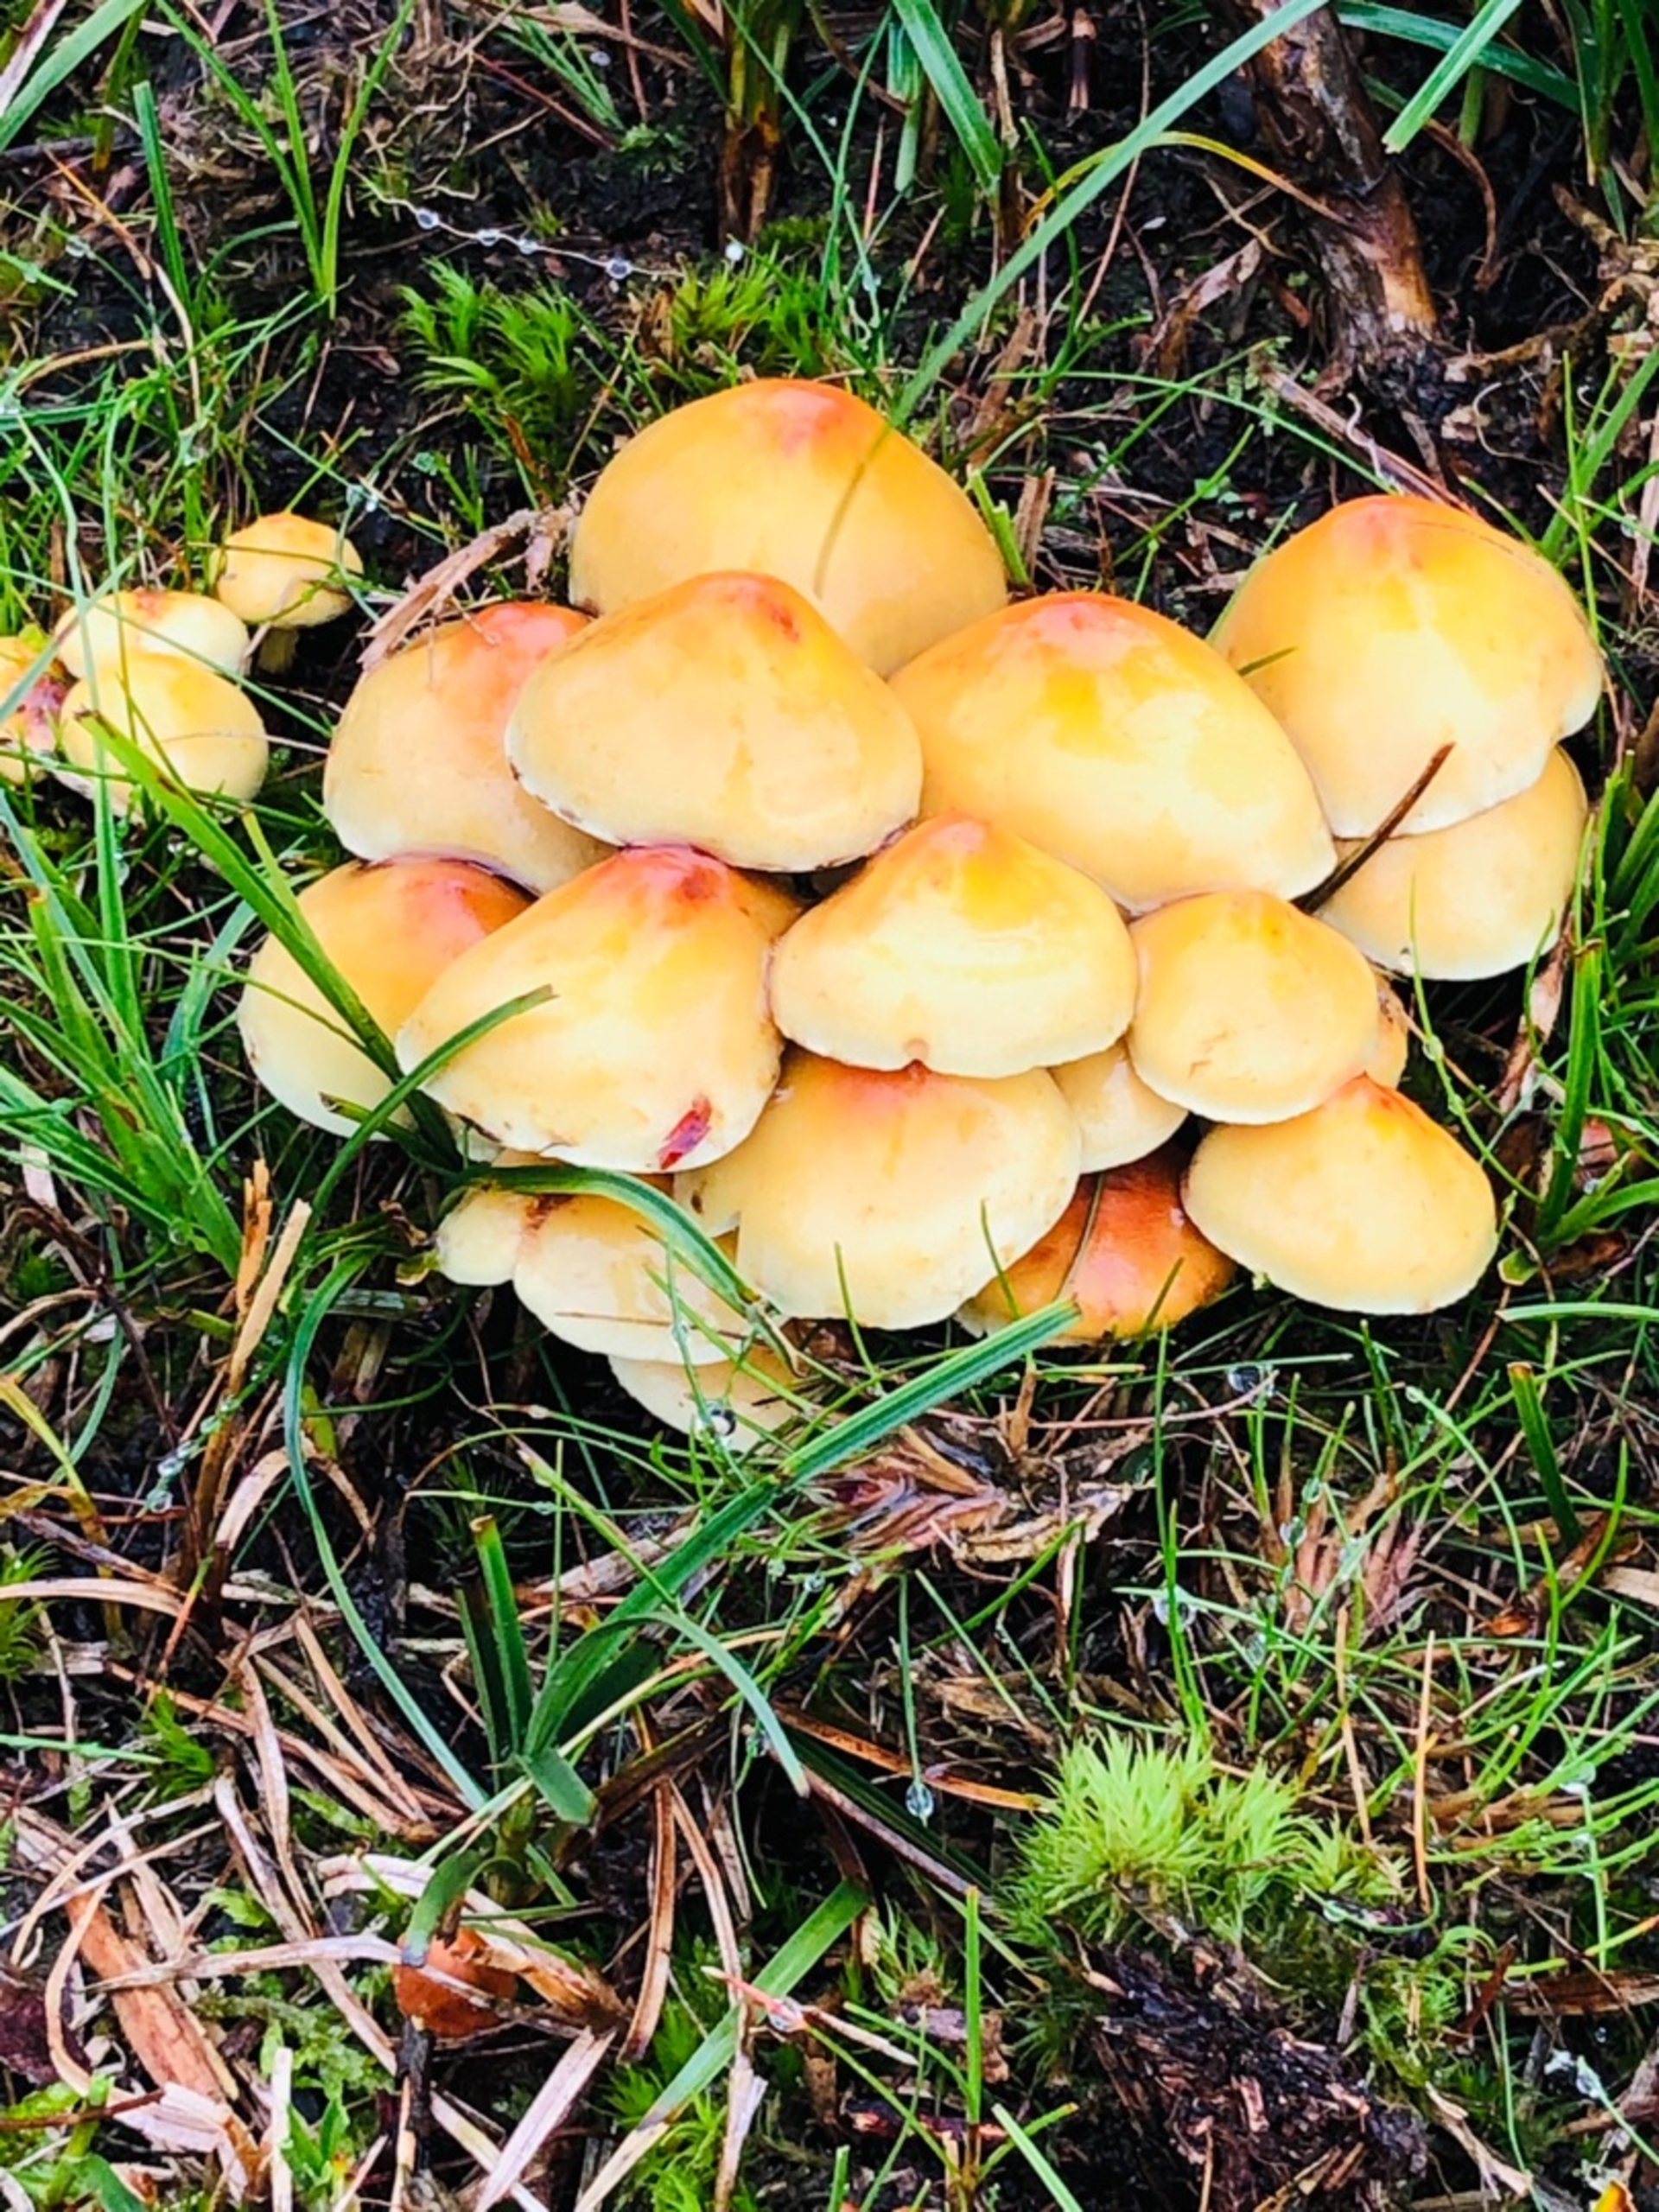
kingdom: Fungi
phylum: Basidiomycota
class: Agaricomycetes
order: Agaricales
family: Strophariaceae
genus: Hypholoma
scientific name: Hypholoma fasciculare
